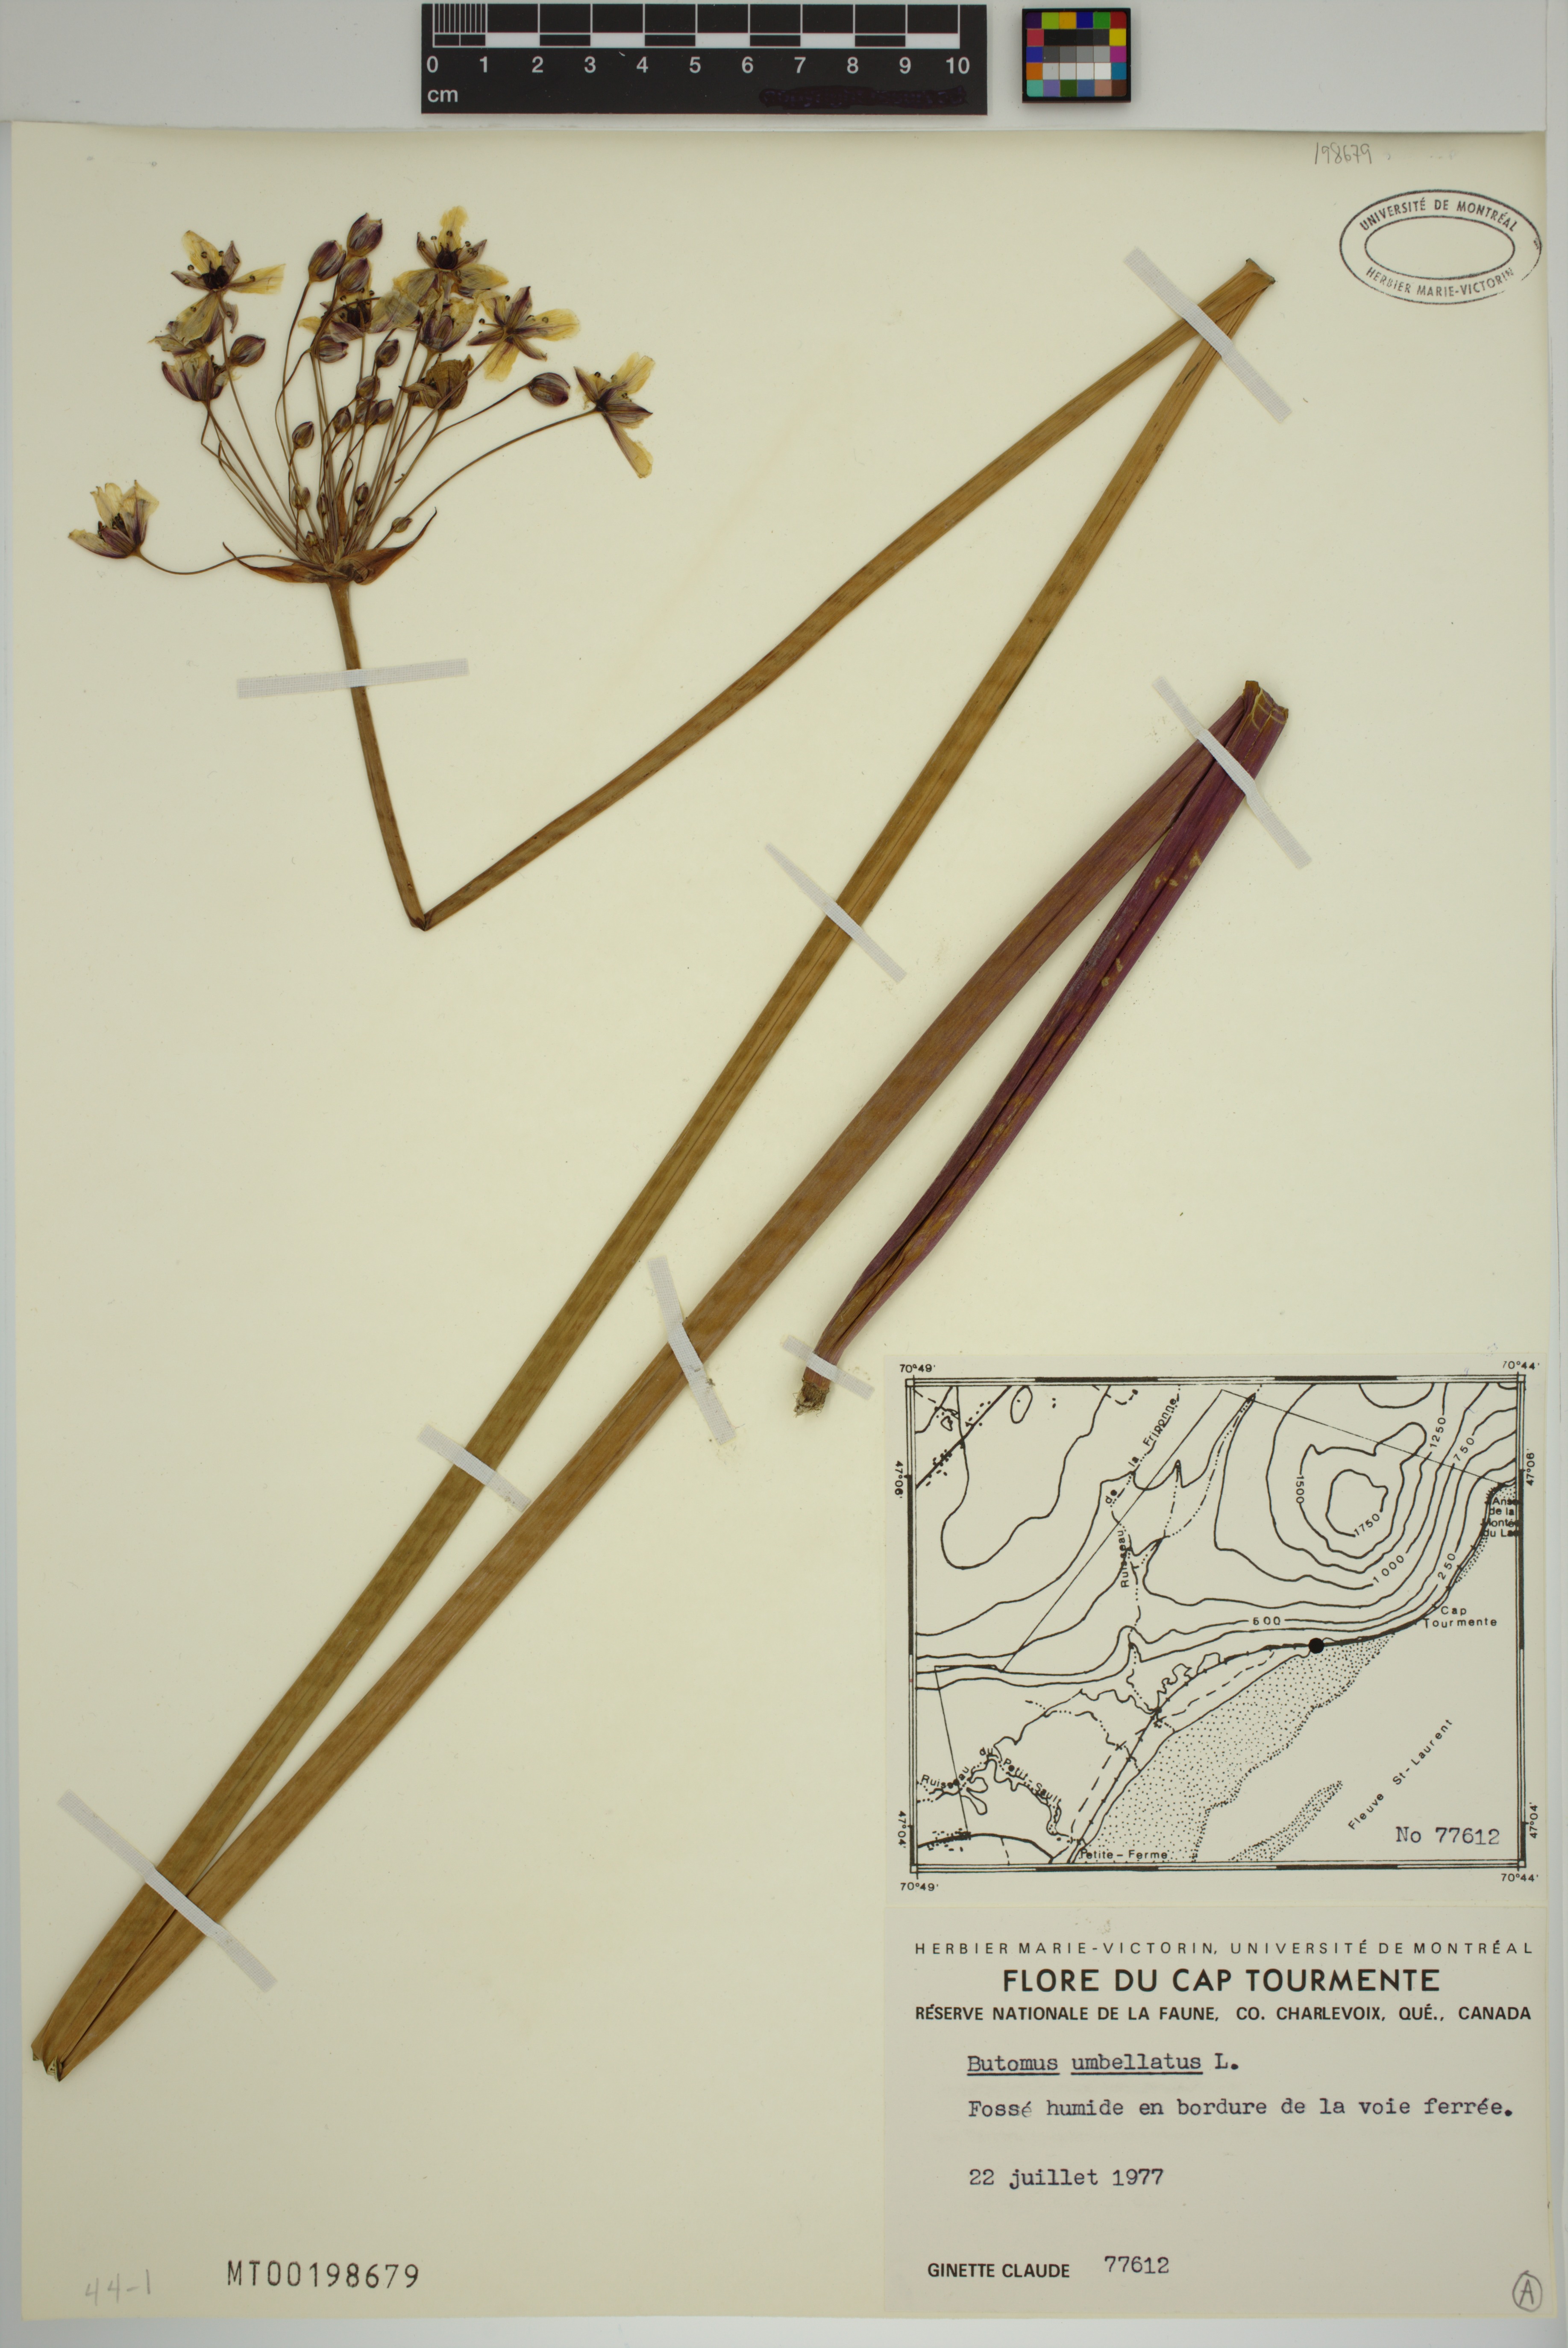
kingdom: Plantae
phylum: Tracheophyta
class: Liliopsida
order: Alismatales
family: Butomaceae
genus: Butomus
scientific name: Butomus umbellatus
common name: Flowering-rush
